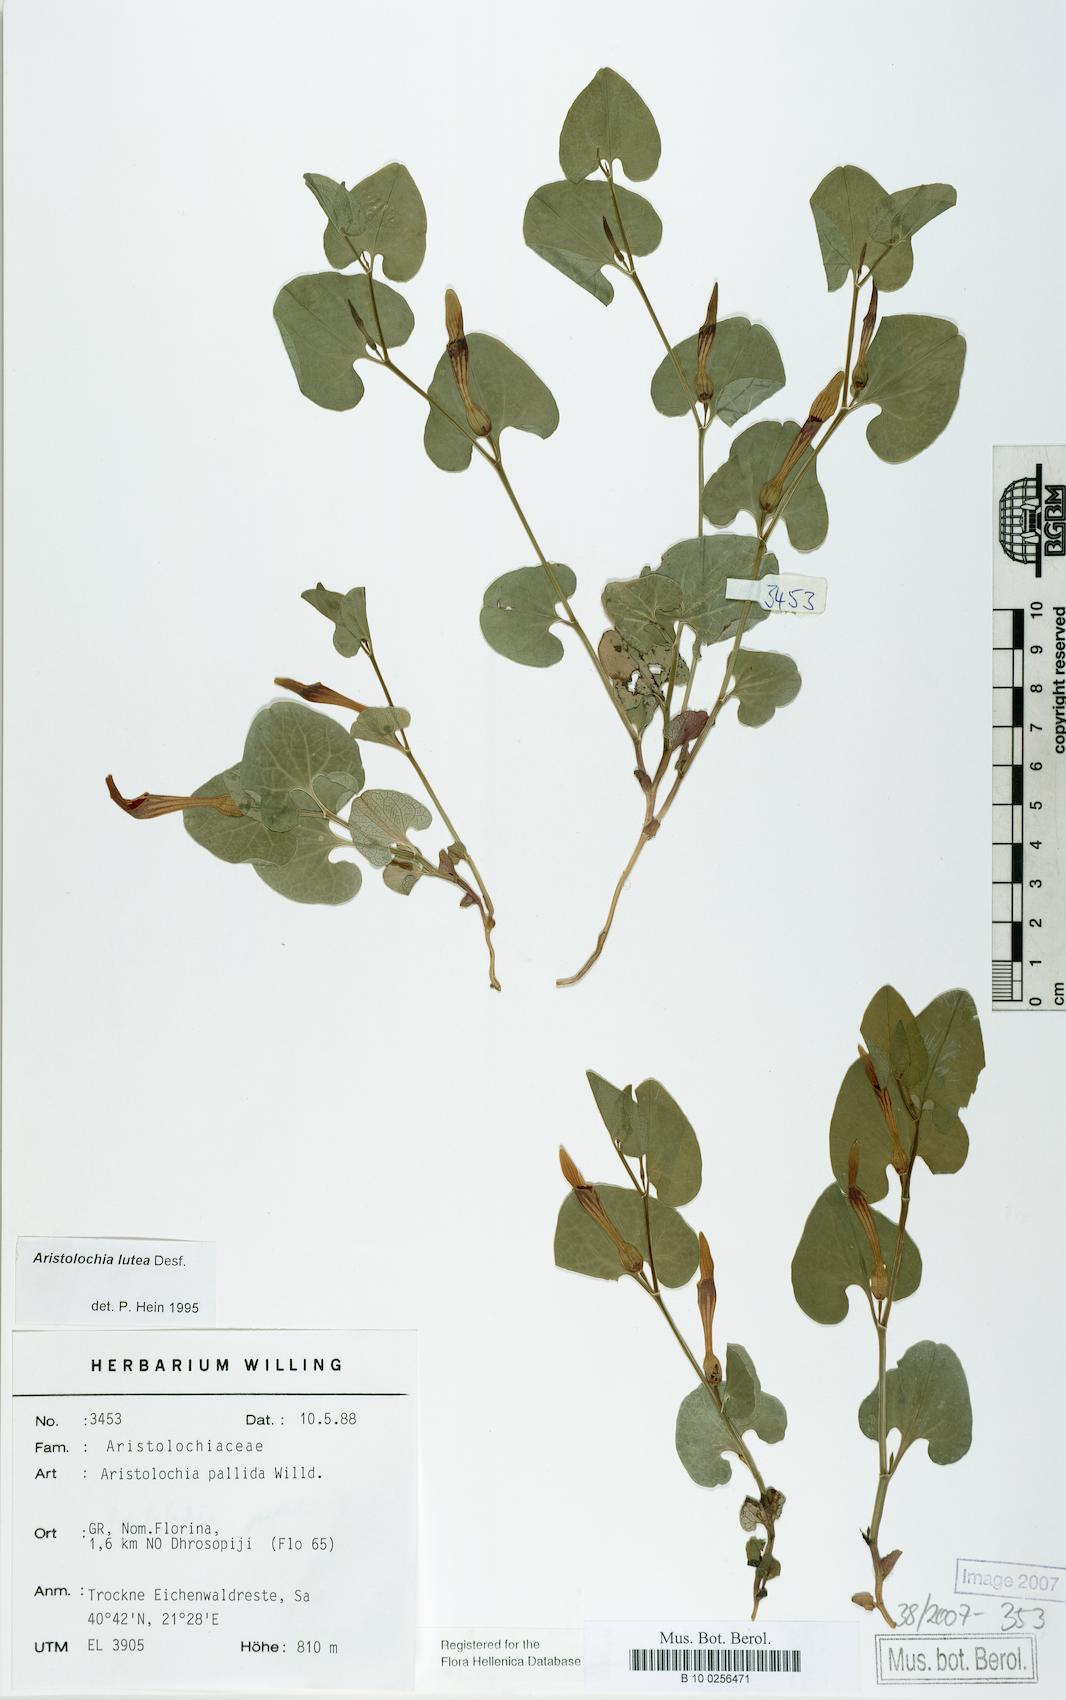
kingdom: Plantae
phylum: Tracheophyta
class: Magnoliopsida
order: Piperales
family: Aristolochiaceae
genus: Aristolochia
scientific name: Aristolochia pallida
